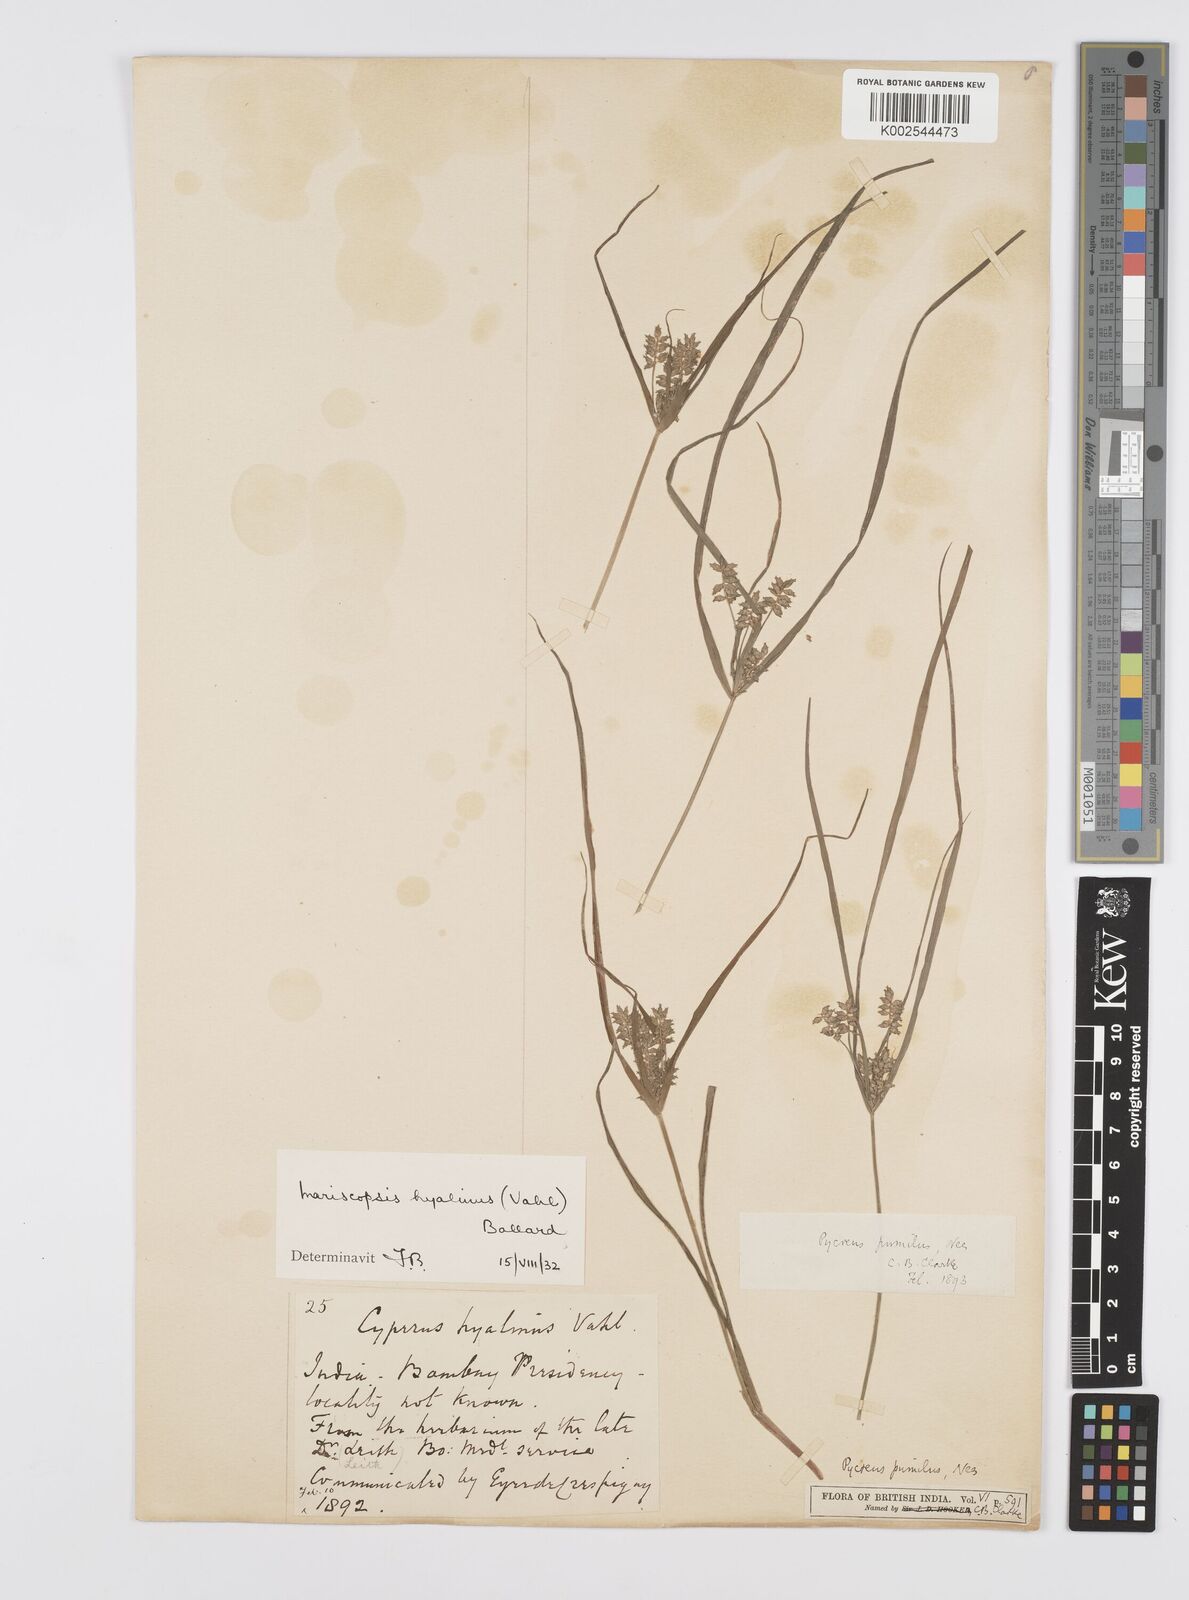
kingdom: Plantae
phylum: Tracheophyta
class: Liliopsida
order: Poales
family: Cyperaceae
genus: Cyperus
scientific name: Cyperus hyalinus
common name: Queensland sedge
